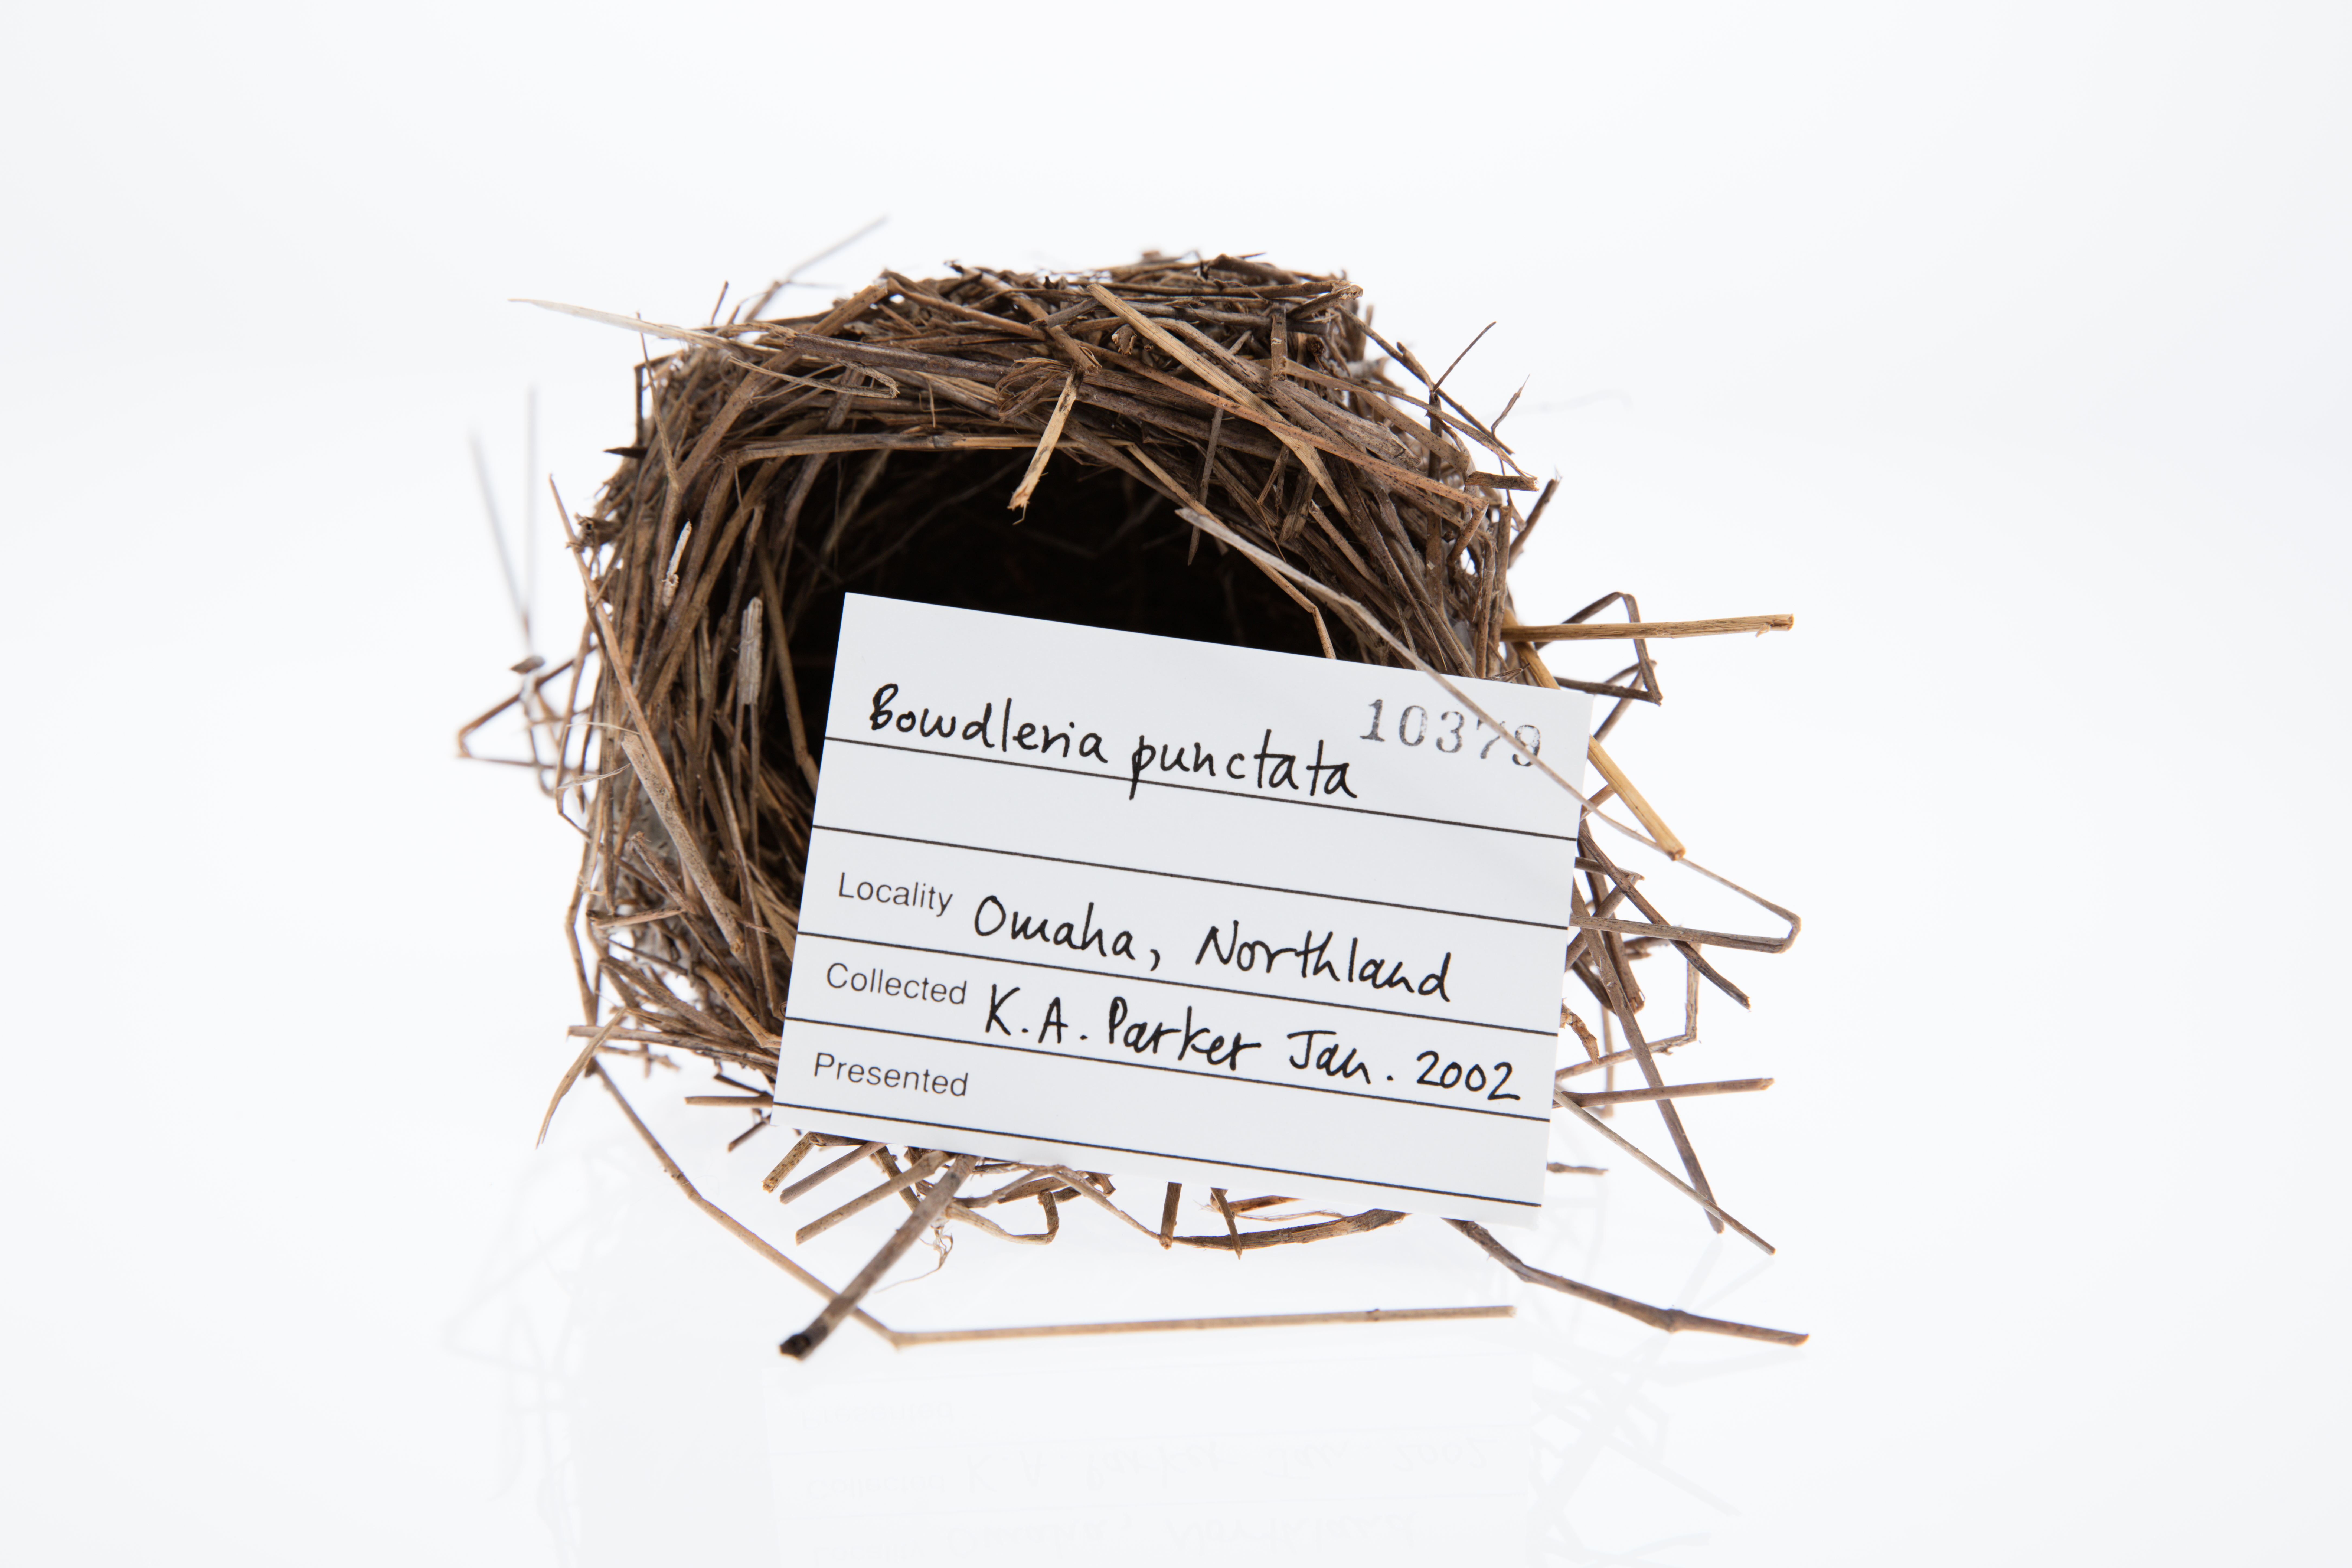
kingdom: Animalia
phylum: Chordata
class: Aves
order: Passeriformes
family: Locustellidae
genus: Megalurus
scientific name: Megalurus punctatus
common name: New zealand fernbird
